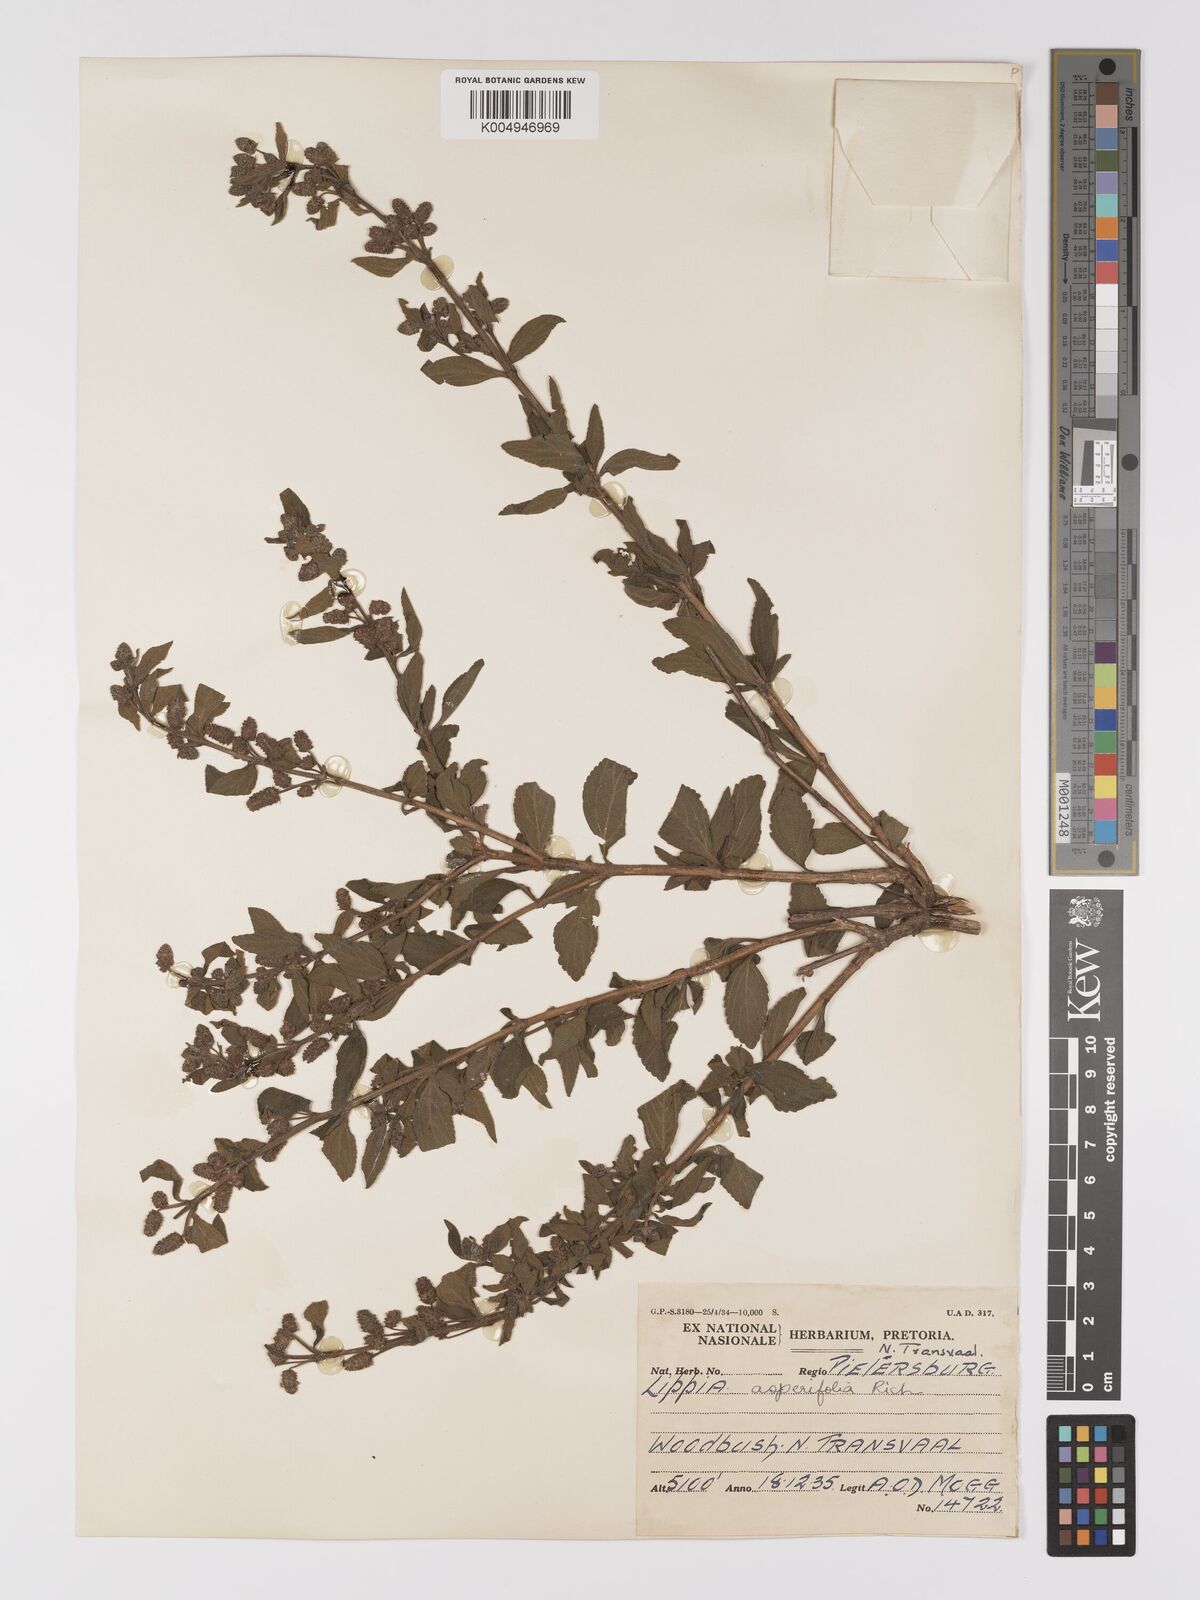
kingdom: Plantae
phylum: Tracheophyta
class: Magnoliopsida
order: Lamiales
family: Verbenaceae
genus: Lippia
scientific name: Lippia javanica
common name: Lemonbush
